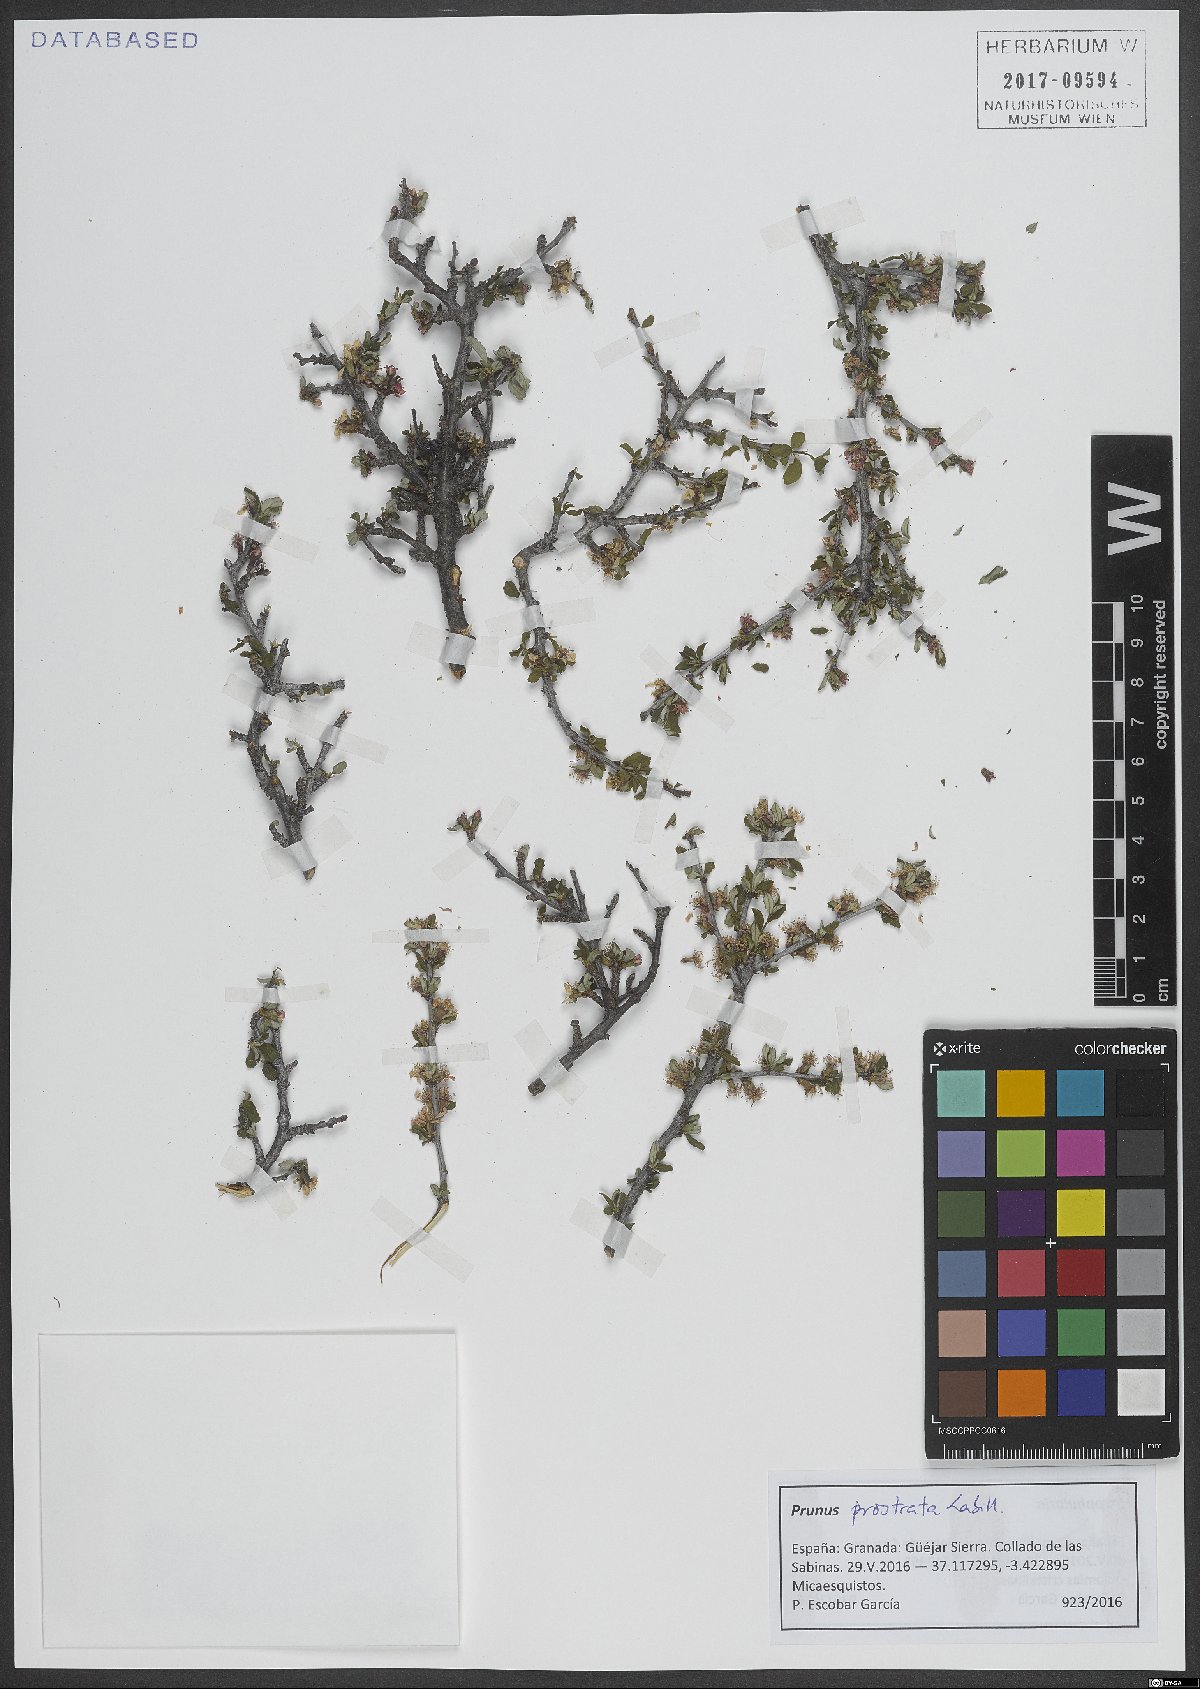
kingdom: Plantae
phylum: Tracheophyta
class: Magnoliopsida
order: Rosales
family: Rosaceae
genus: Prunus
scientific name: Prunus prostrata
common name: Mountain cherry
